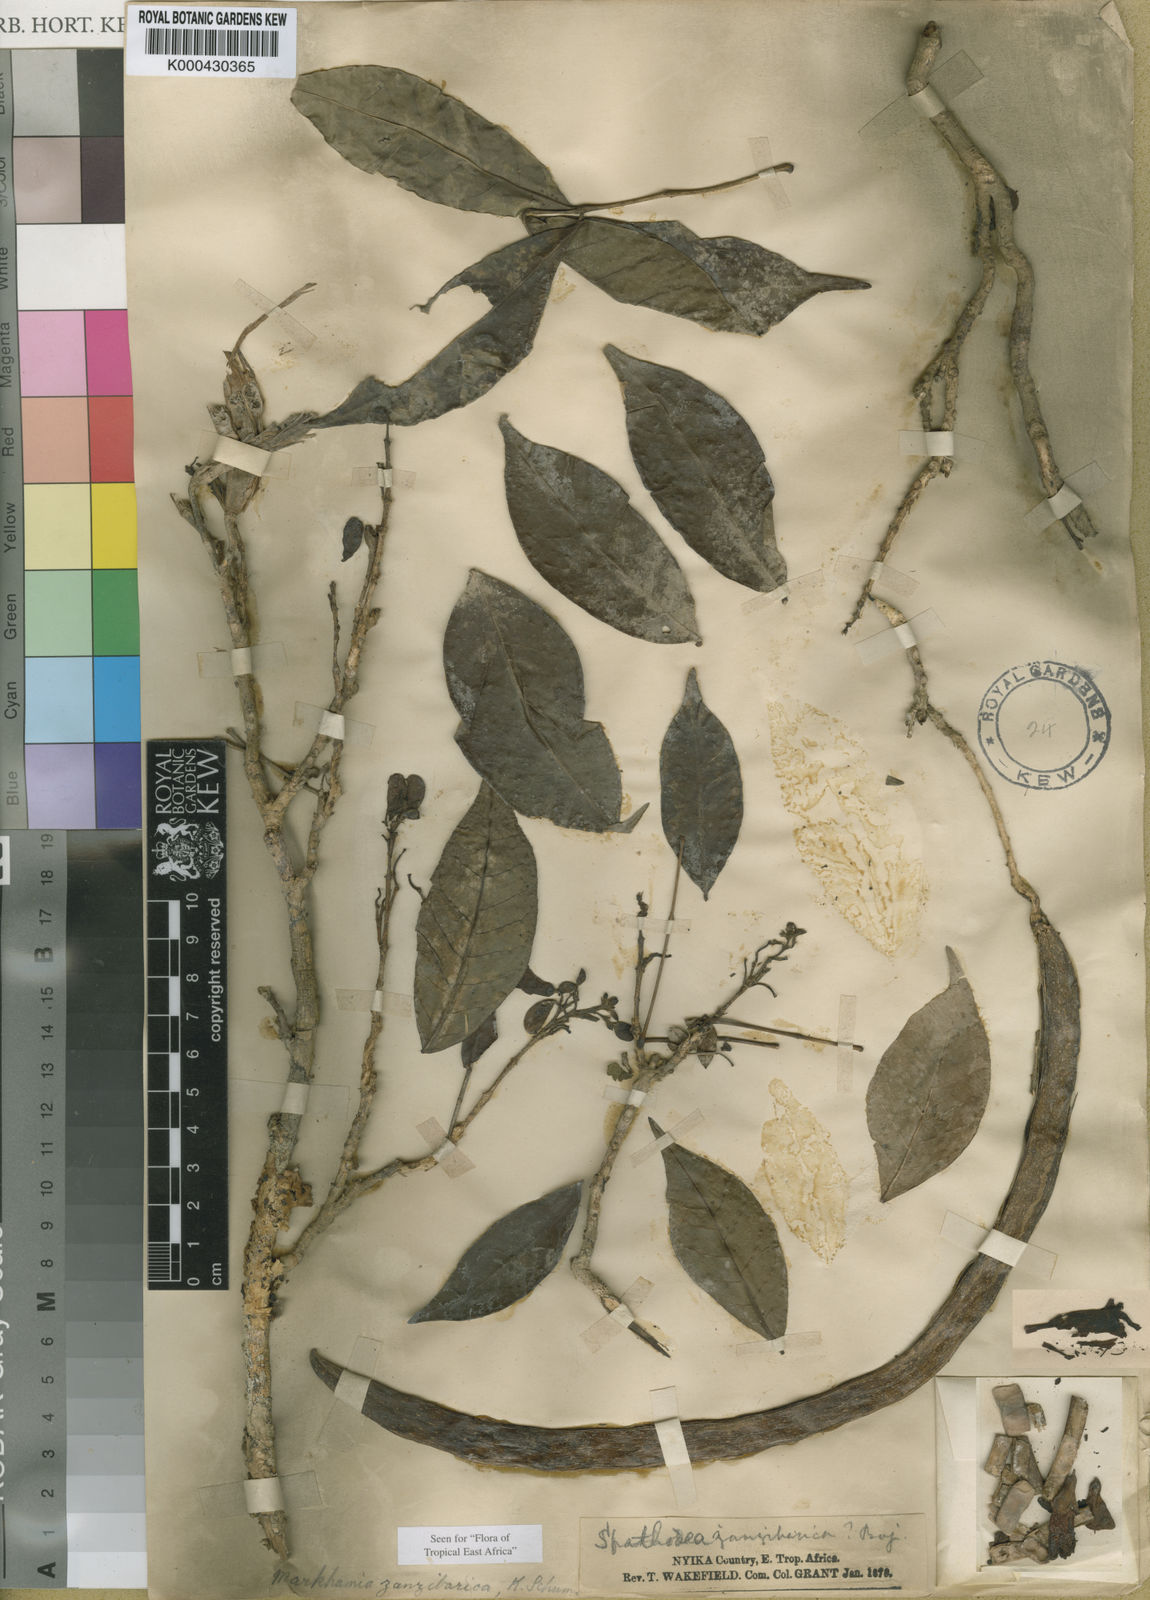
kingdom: Plantae
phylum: Tracheophyta
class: Magnoliopsida
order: Lamiales
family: Bignoniaceae
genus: Markhamia
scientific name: Markhamia zanzibarica
